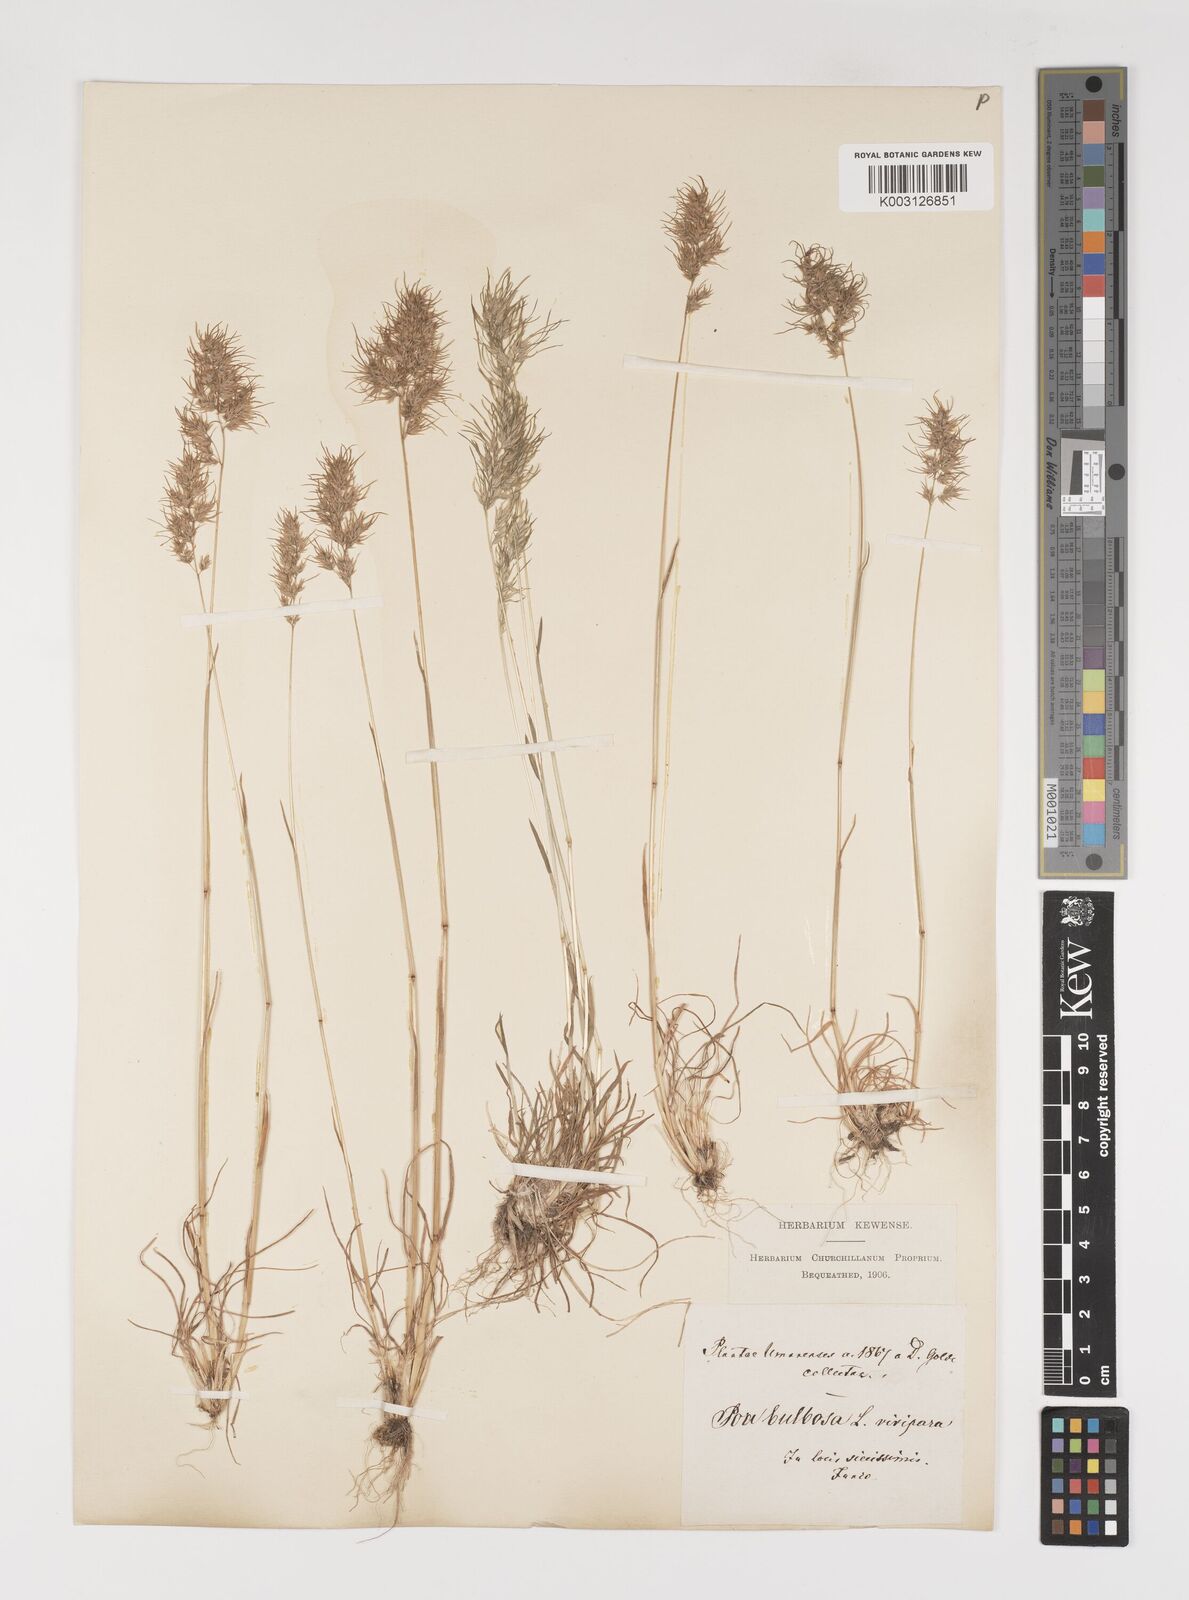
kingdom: Plantae
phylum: Tracheophyta
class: Liliopsida
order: Poales
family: Poaceae
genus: Poa
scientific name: Poa bulbosa
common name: Bulbous bluegrass
